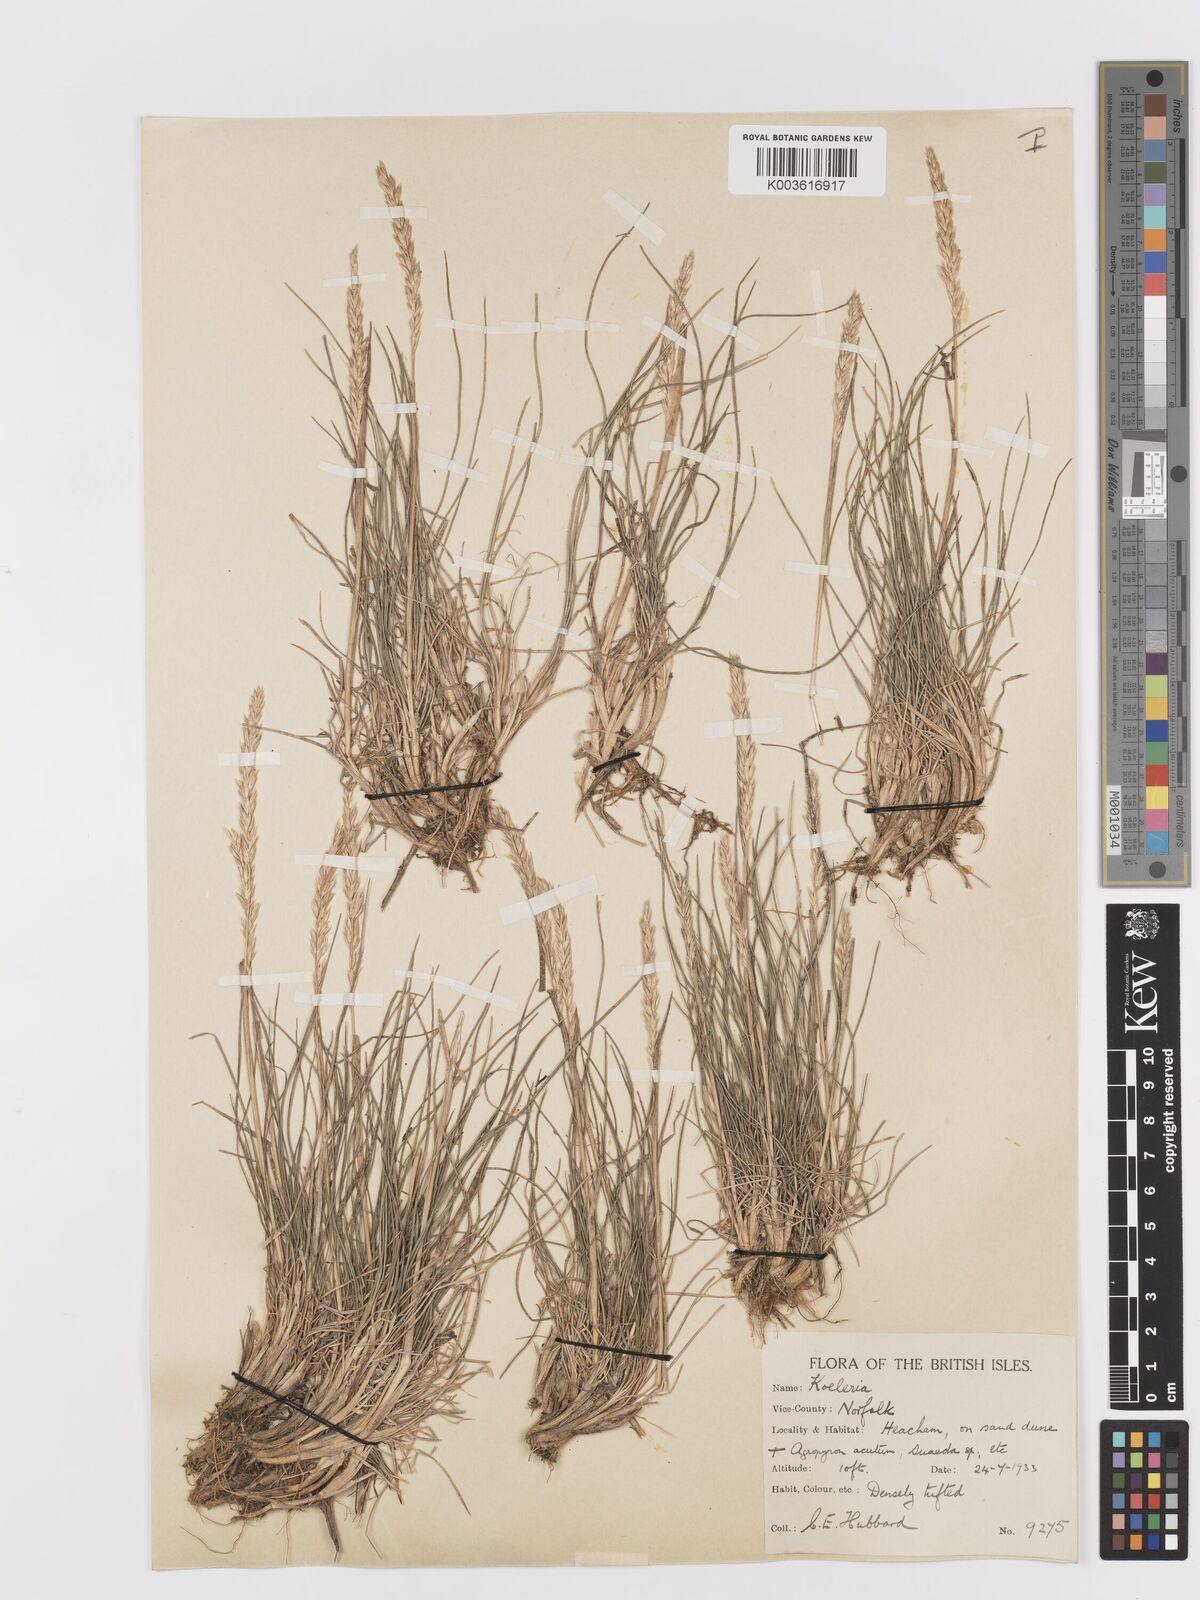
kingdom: Plantae
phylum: Tracheophyta
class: Liliopsida
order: Poales
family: Poaceae
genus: Koeleria
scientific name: Koeleria macrantha
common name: Crested hair-grass
